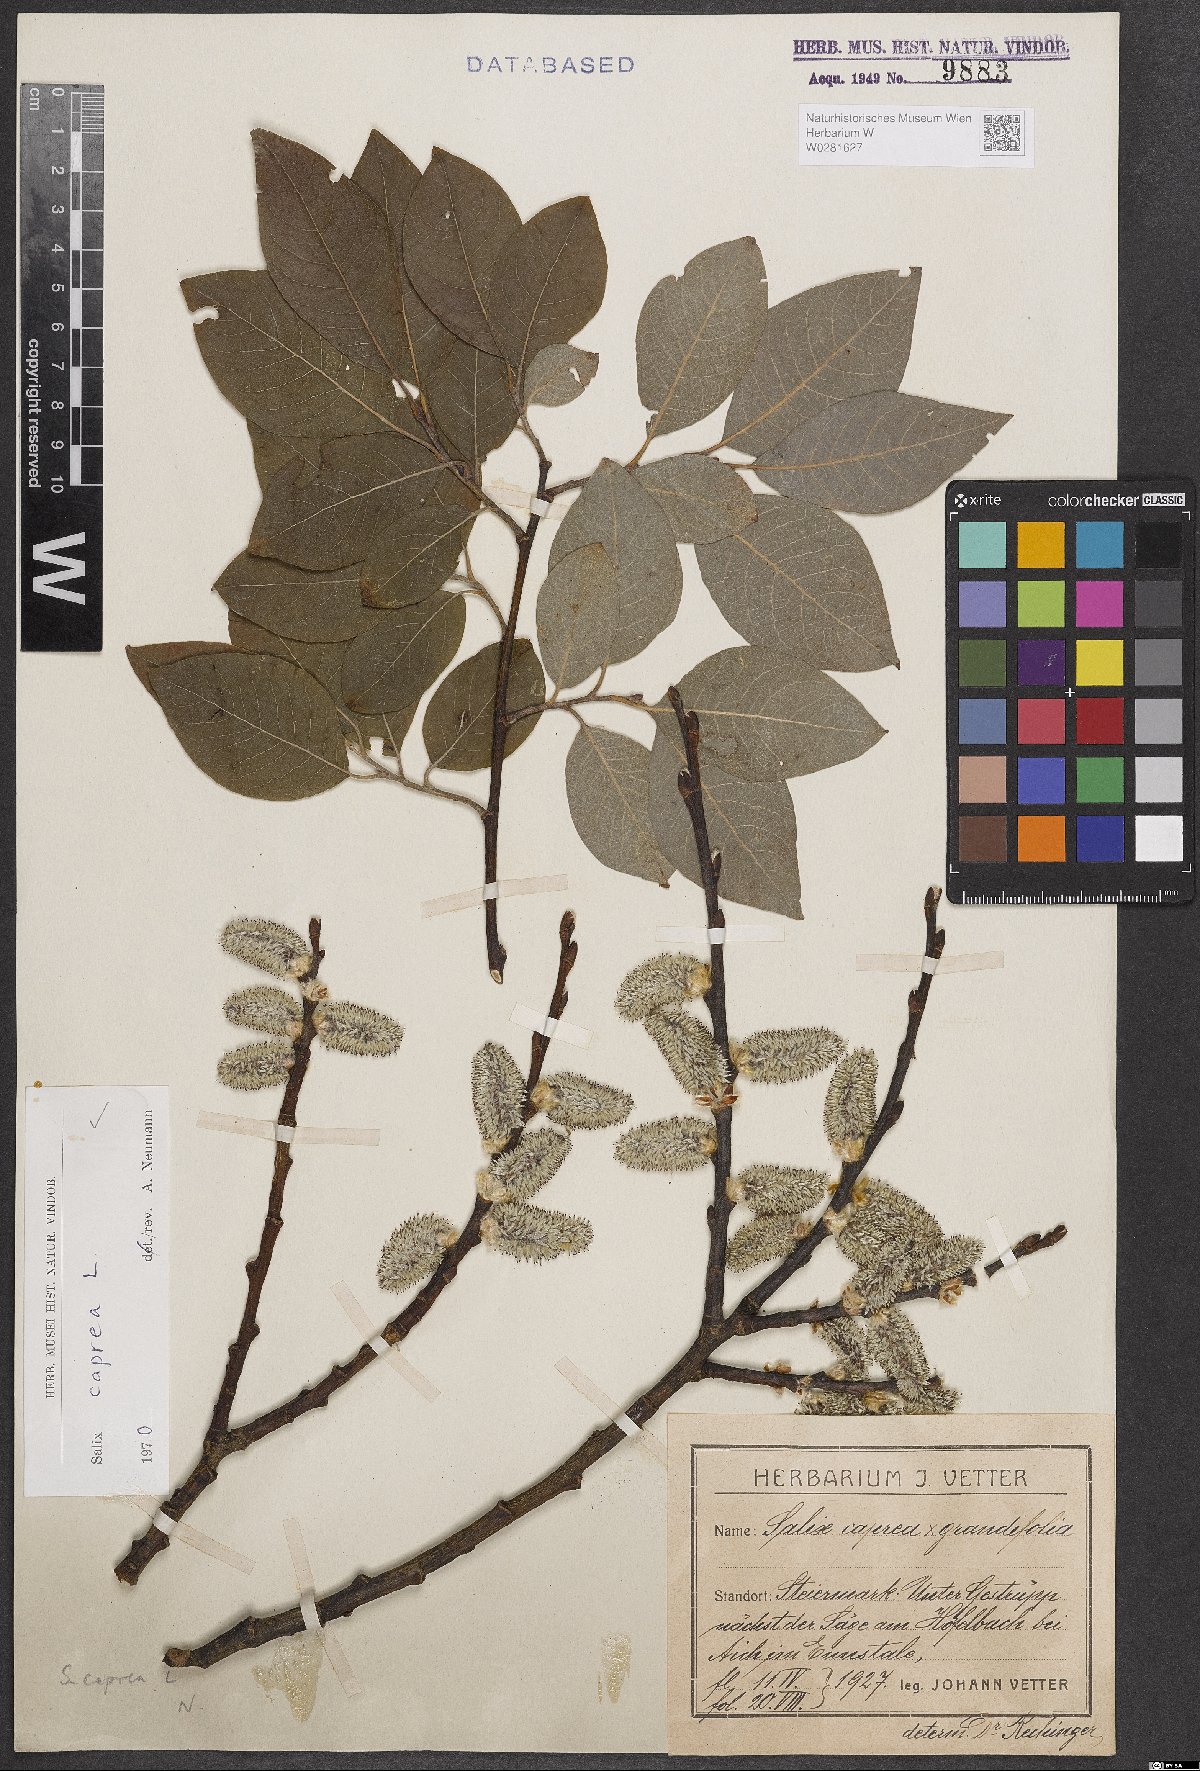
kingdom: Plantae
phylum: Tracheophyta
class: Magnoliopsida
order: Malpighiales
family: Salicaceae
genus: Salix
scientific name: Salix caprea
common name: Goat willow
